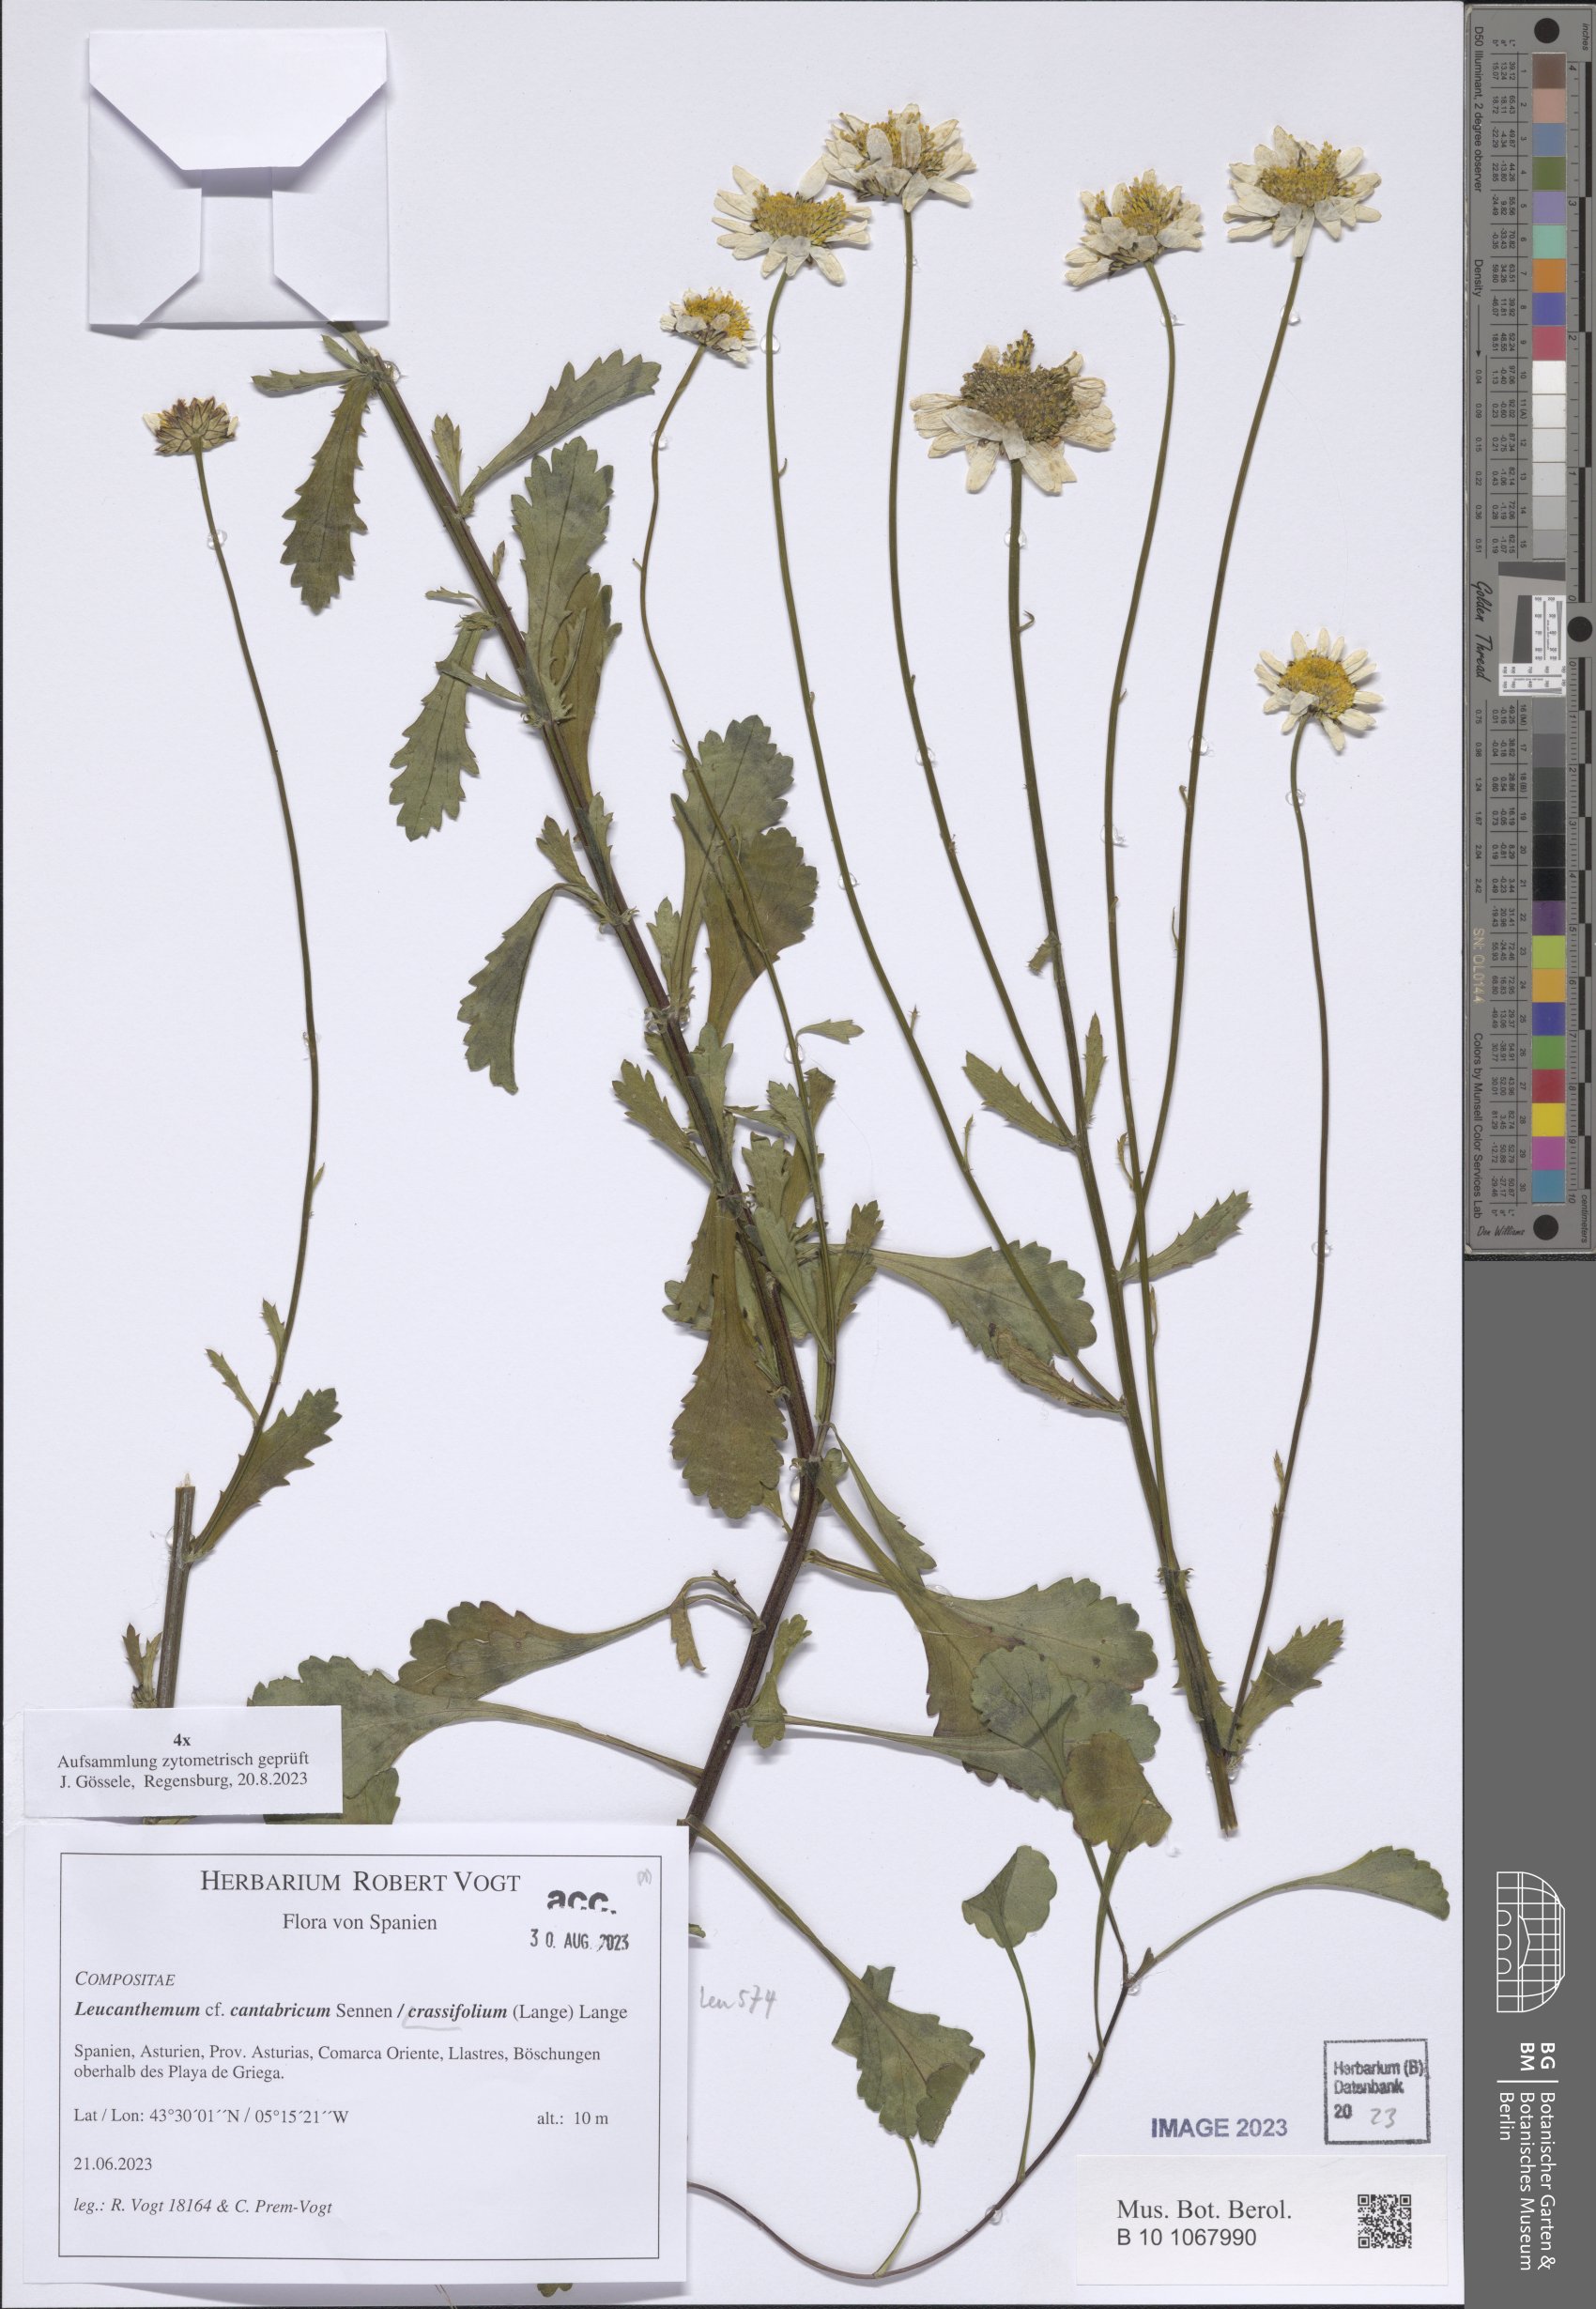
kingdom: Plantae
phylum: Tracheophyta
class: Magnoliopsida
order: Asterales
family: Asteraceae
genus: Leucanthemum
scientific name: Leucanthemum crassifolium
